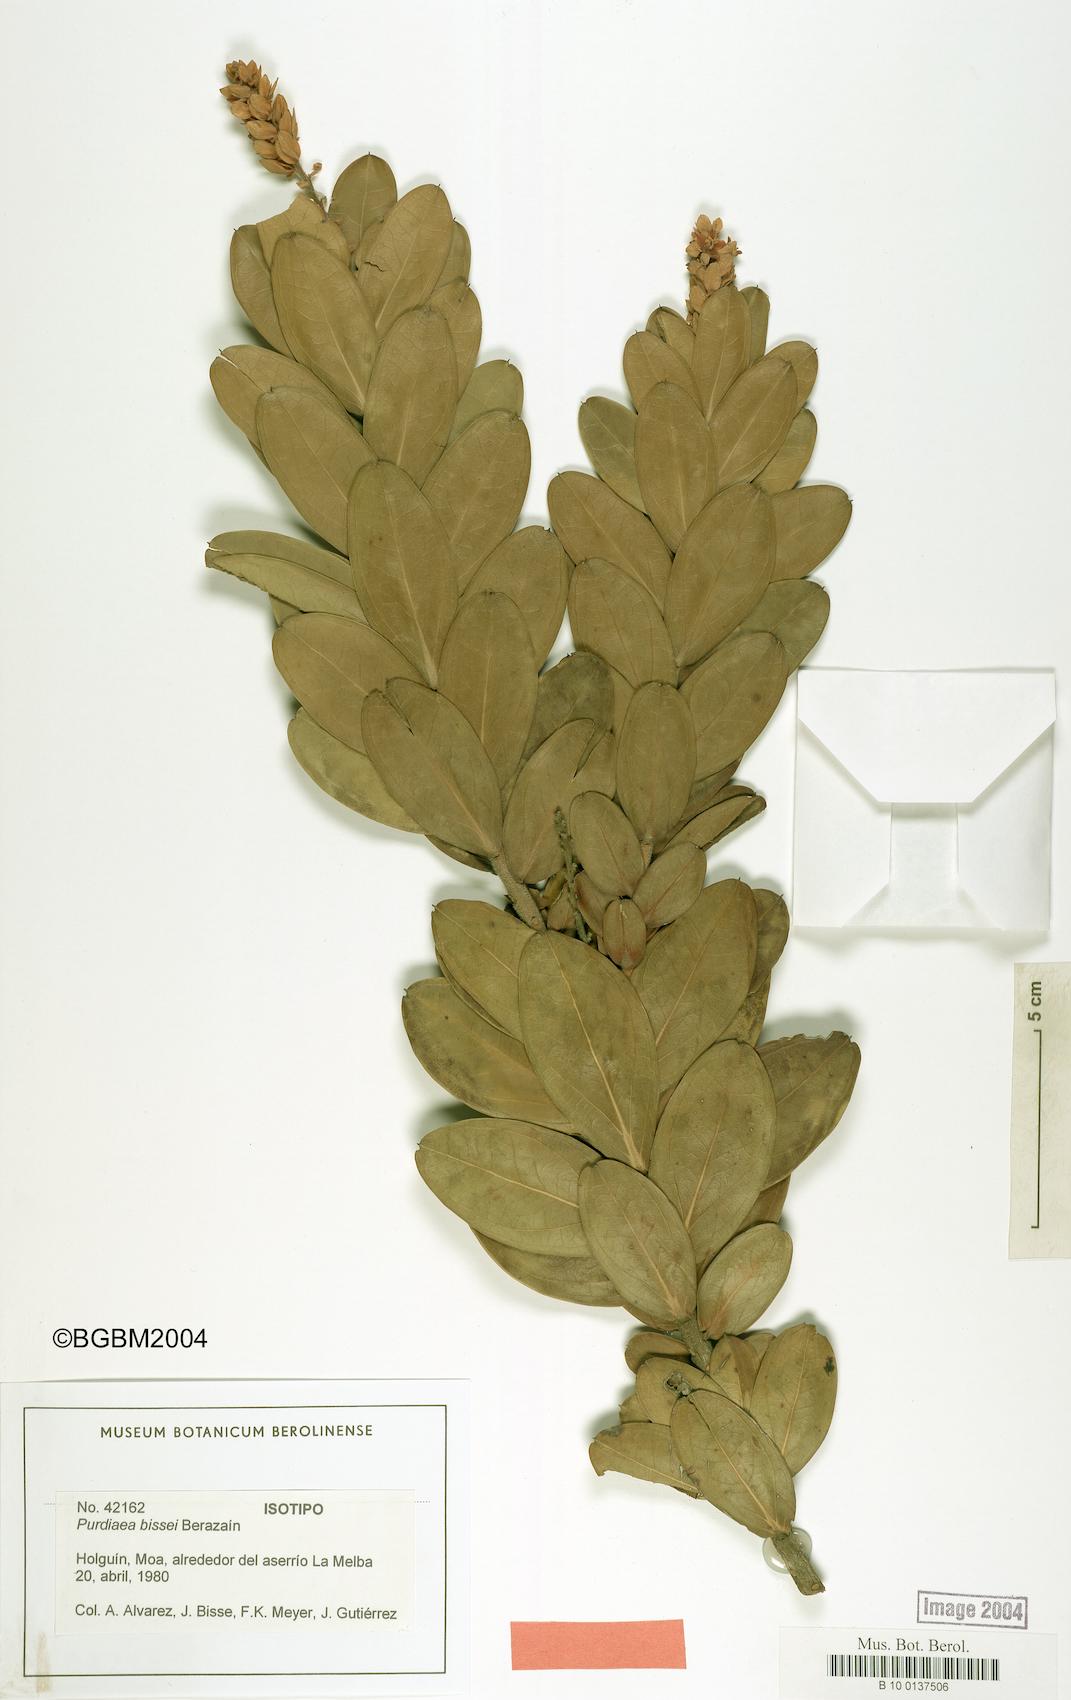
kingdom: Plantae
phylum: Tracheophyta
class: Magnoliopsida
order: Ericales
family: Clethraceae
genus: Purdiaea
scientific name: Purdiaea bissei
